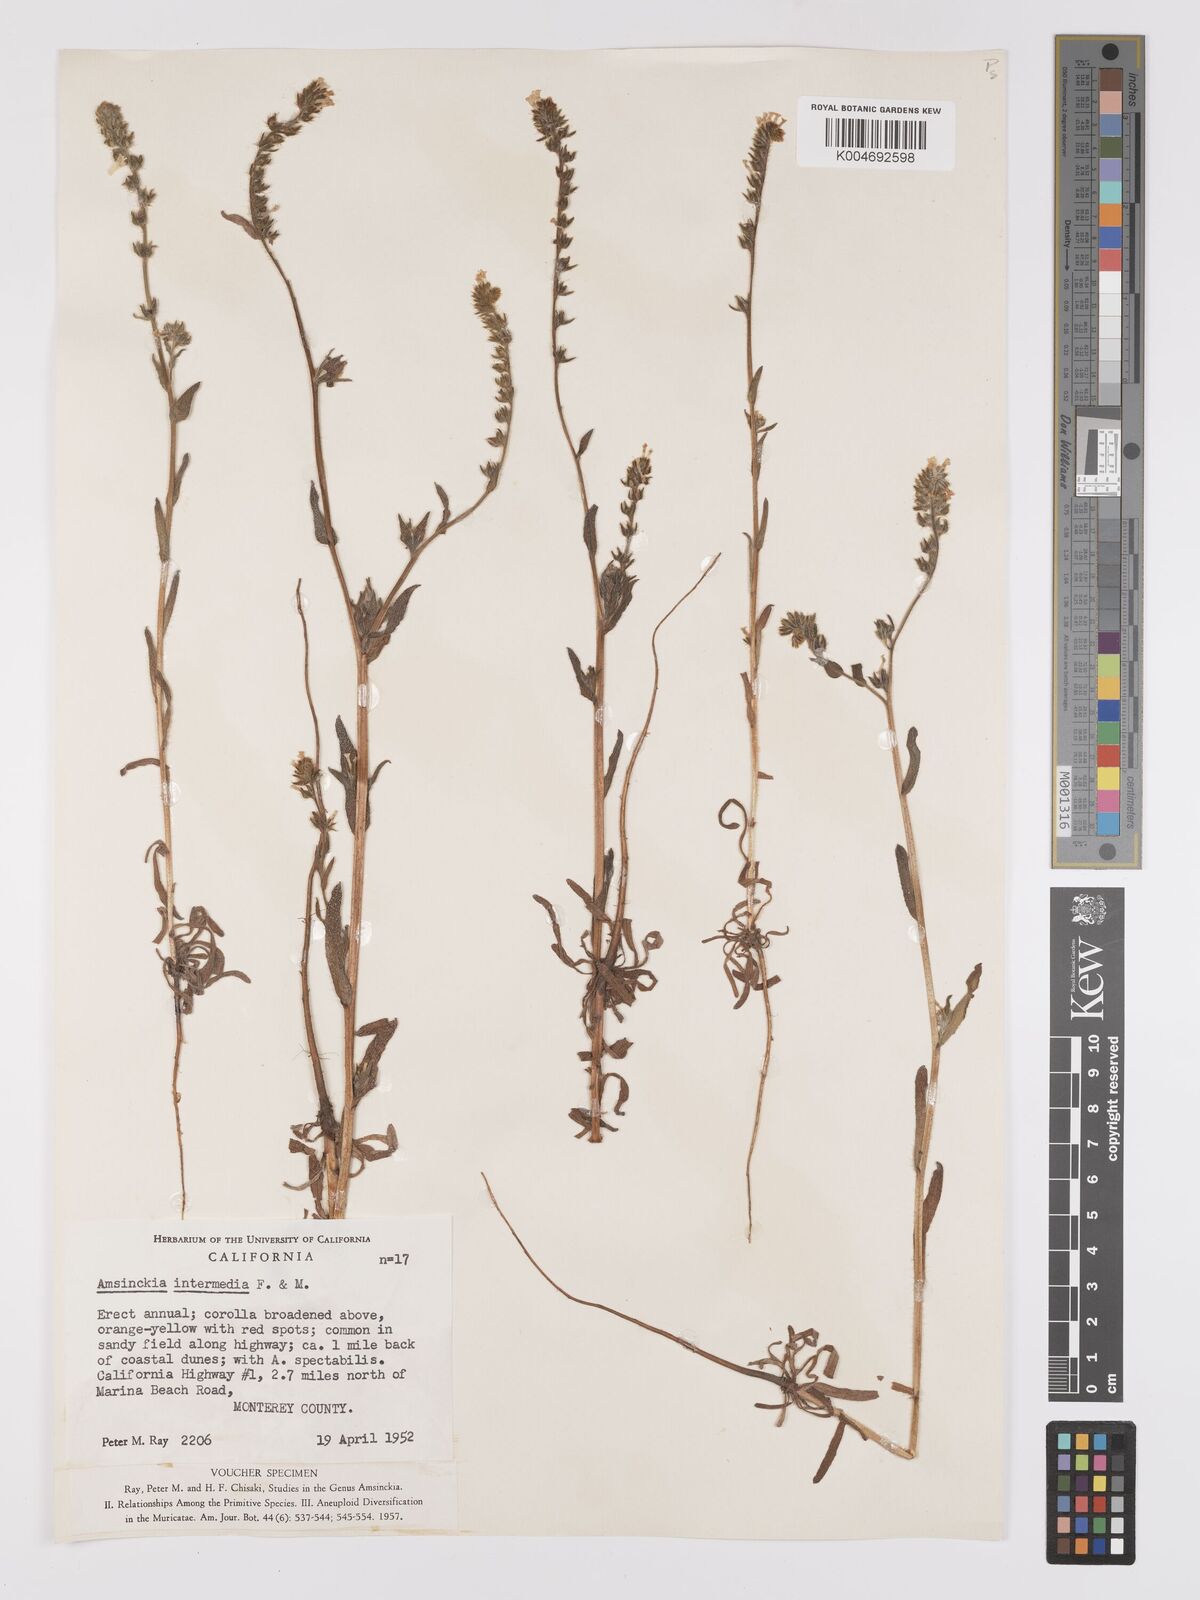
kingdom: Plantae
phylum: Tracheophyta
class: Magnoliopsida
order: Boraginales
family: Boraginaceae
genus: Amsinckia
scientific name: Amsinckia menziesii
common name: Menzies' fiddleneck
